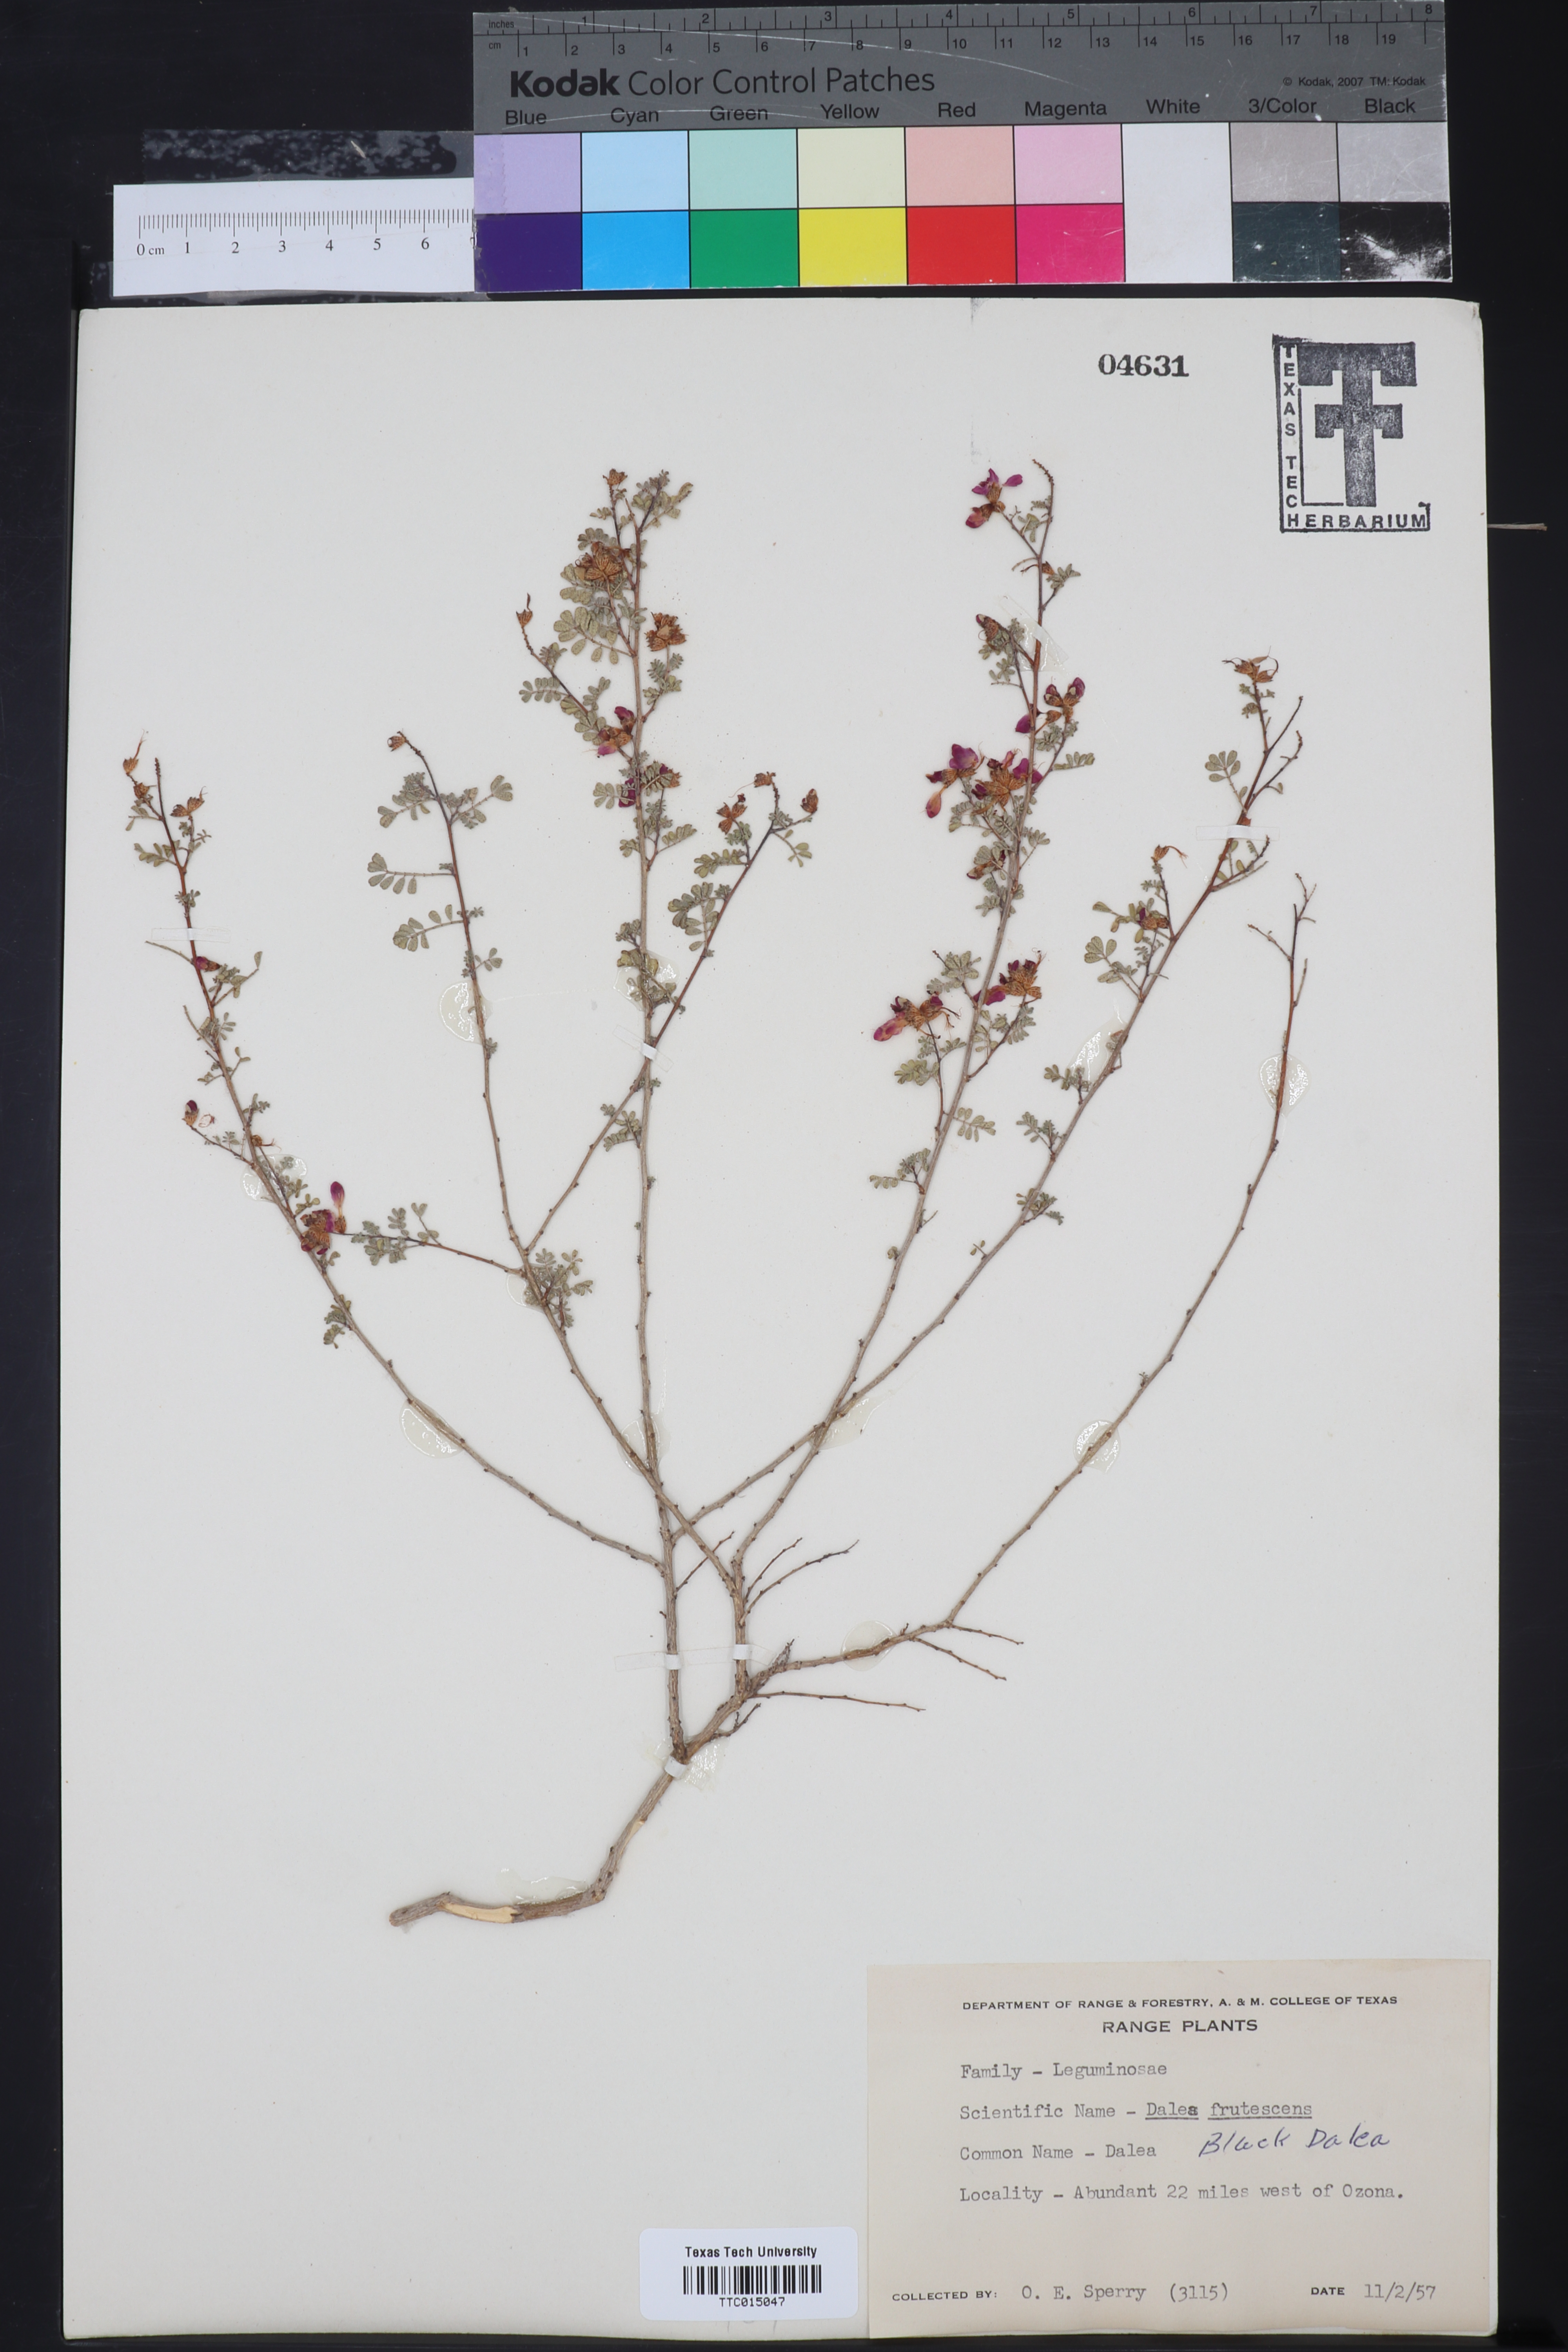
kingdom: Plantae
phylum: Tracheophyta
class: Magnoliopsida
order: Fabales
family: Fabaceae
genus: Dalea
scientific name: Dalea frutescens
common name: Black dalea
